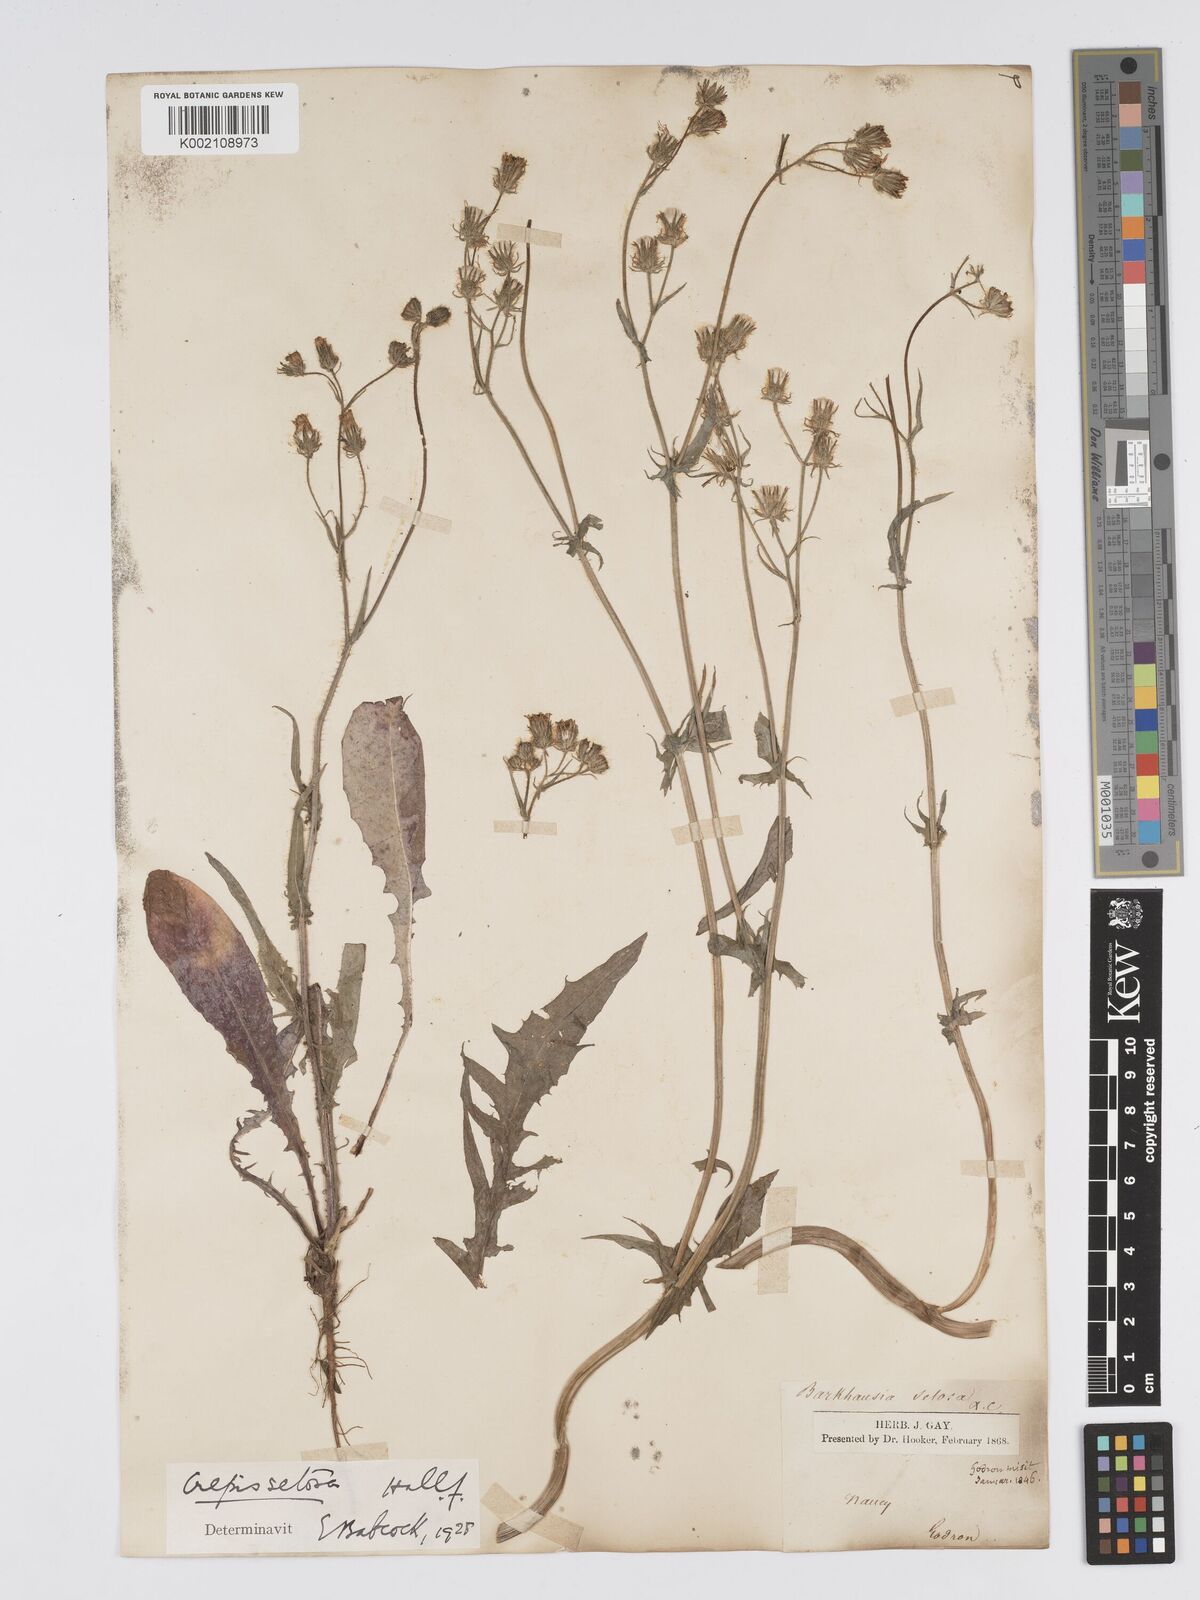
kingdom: Plantae
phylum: Tracheophyta
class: Magnoliopsida
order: Asterales
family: Asteraceae
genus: Crepis
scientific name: Crepis setosa
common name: Bristly hawk's-beard
